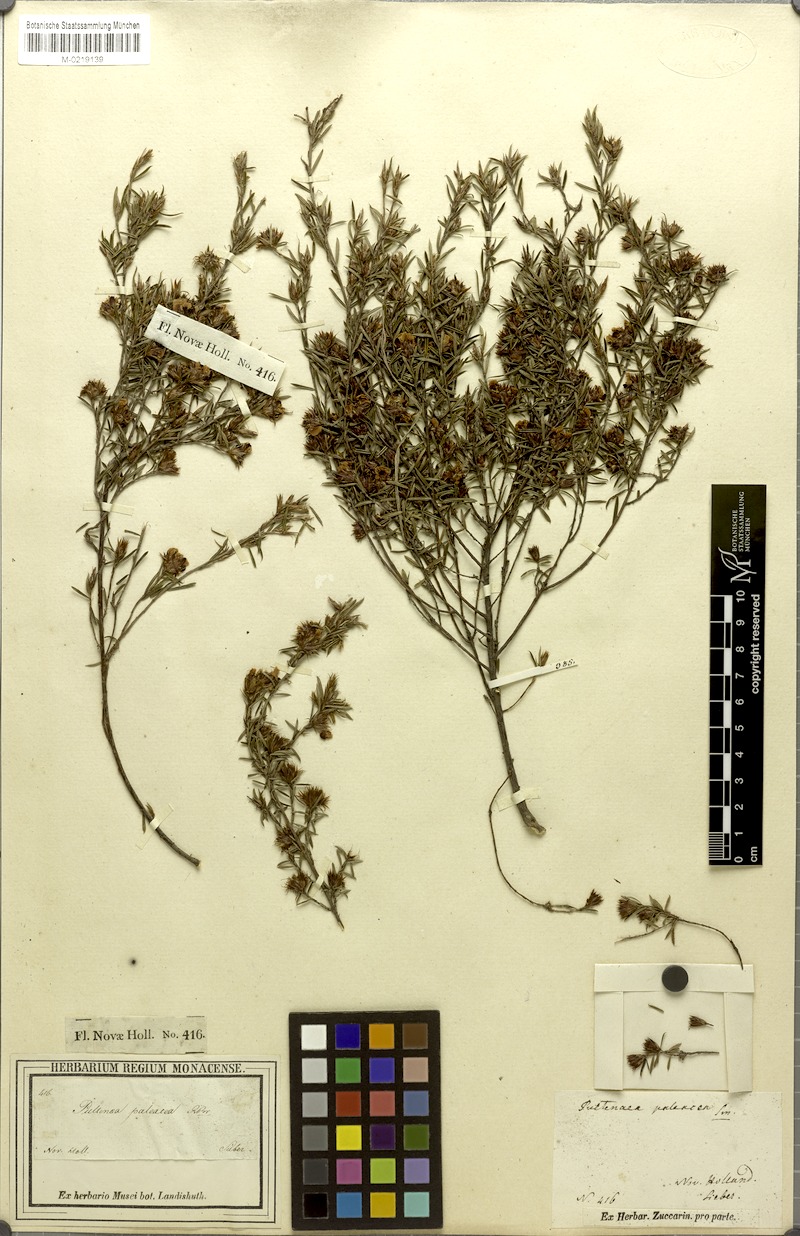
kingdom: Plantae
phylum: Tracheophyta
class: Magnoliopsida
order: Fabales
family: Fabaceae
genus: Pultenaea
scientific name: Pultenaea paleacea
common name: Chaffy bush-pea
